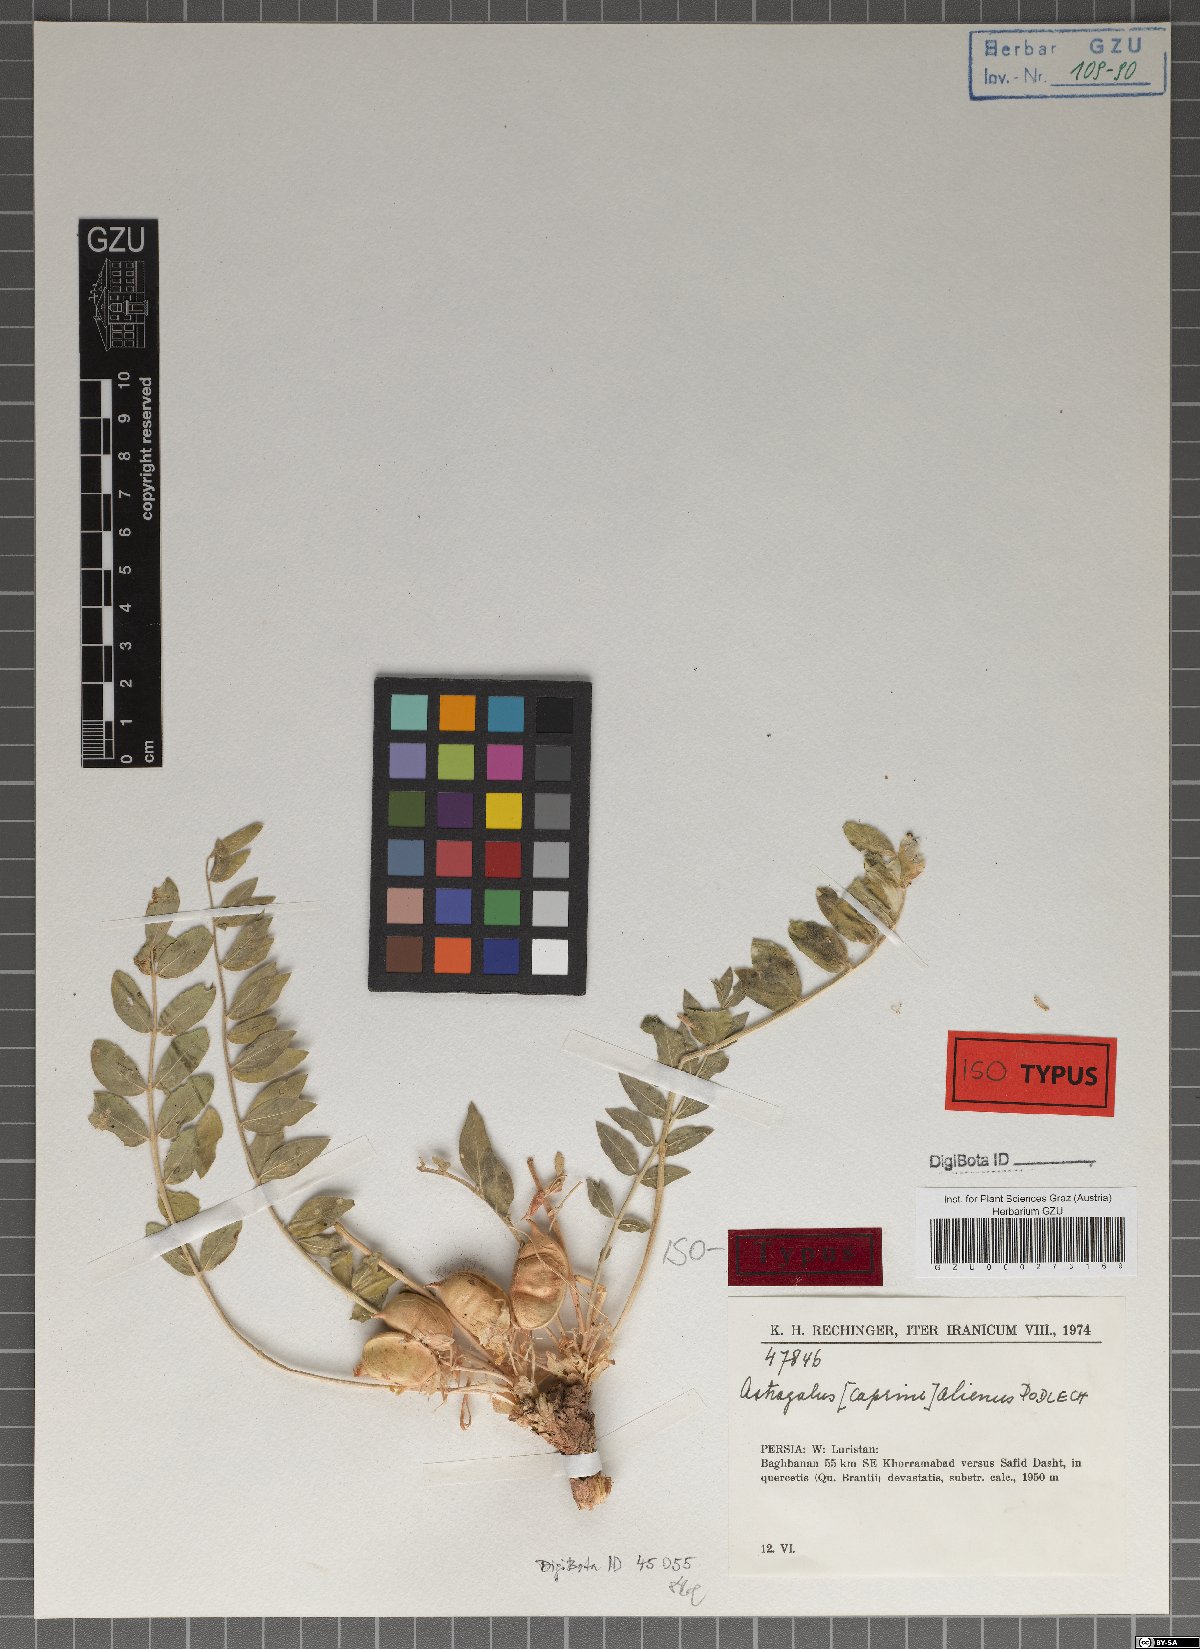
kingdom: Plantae
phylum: Tracheophyta
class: Magnoliopsida
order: Fabales
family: Fabaceae
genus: Astragalus
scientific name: Astragalus allectus
